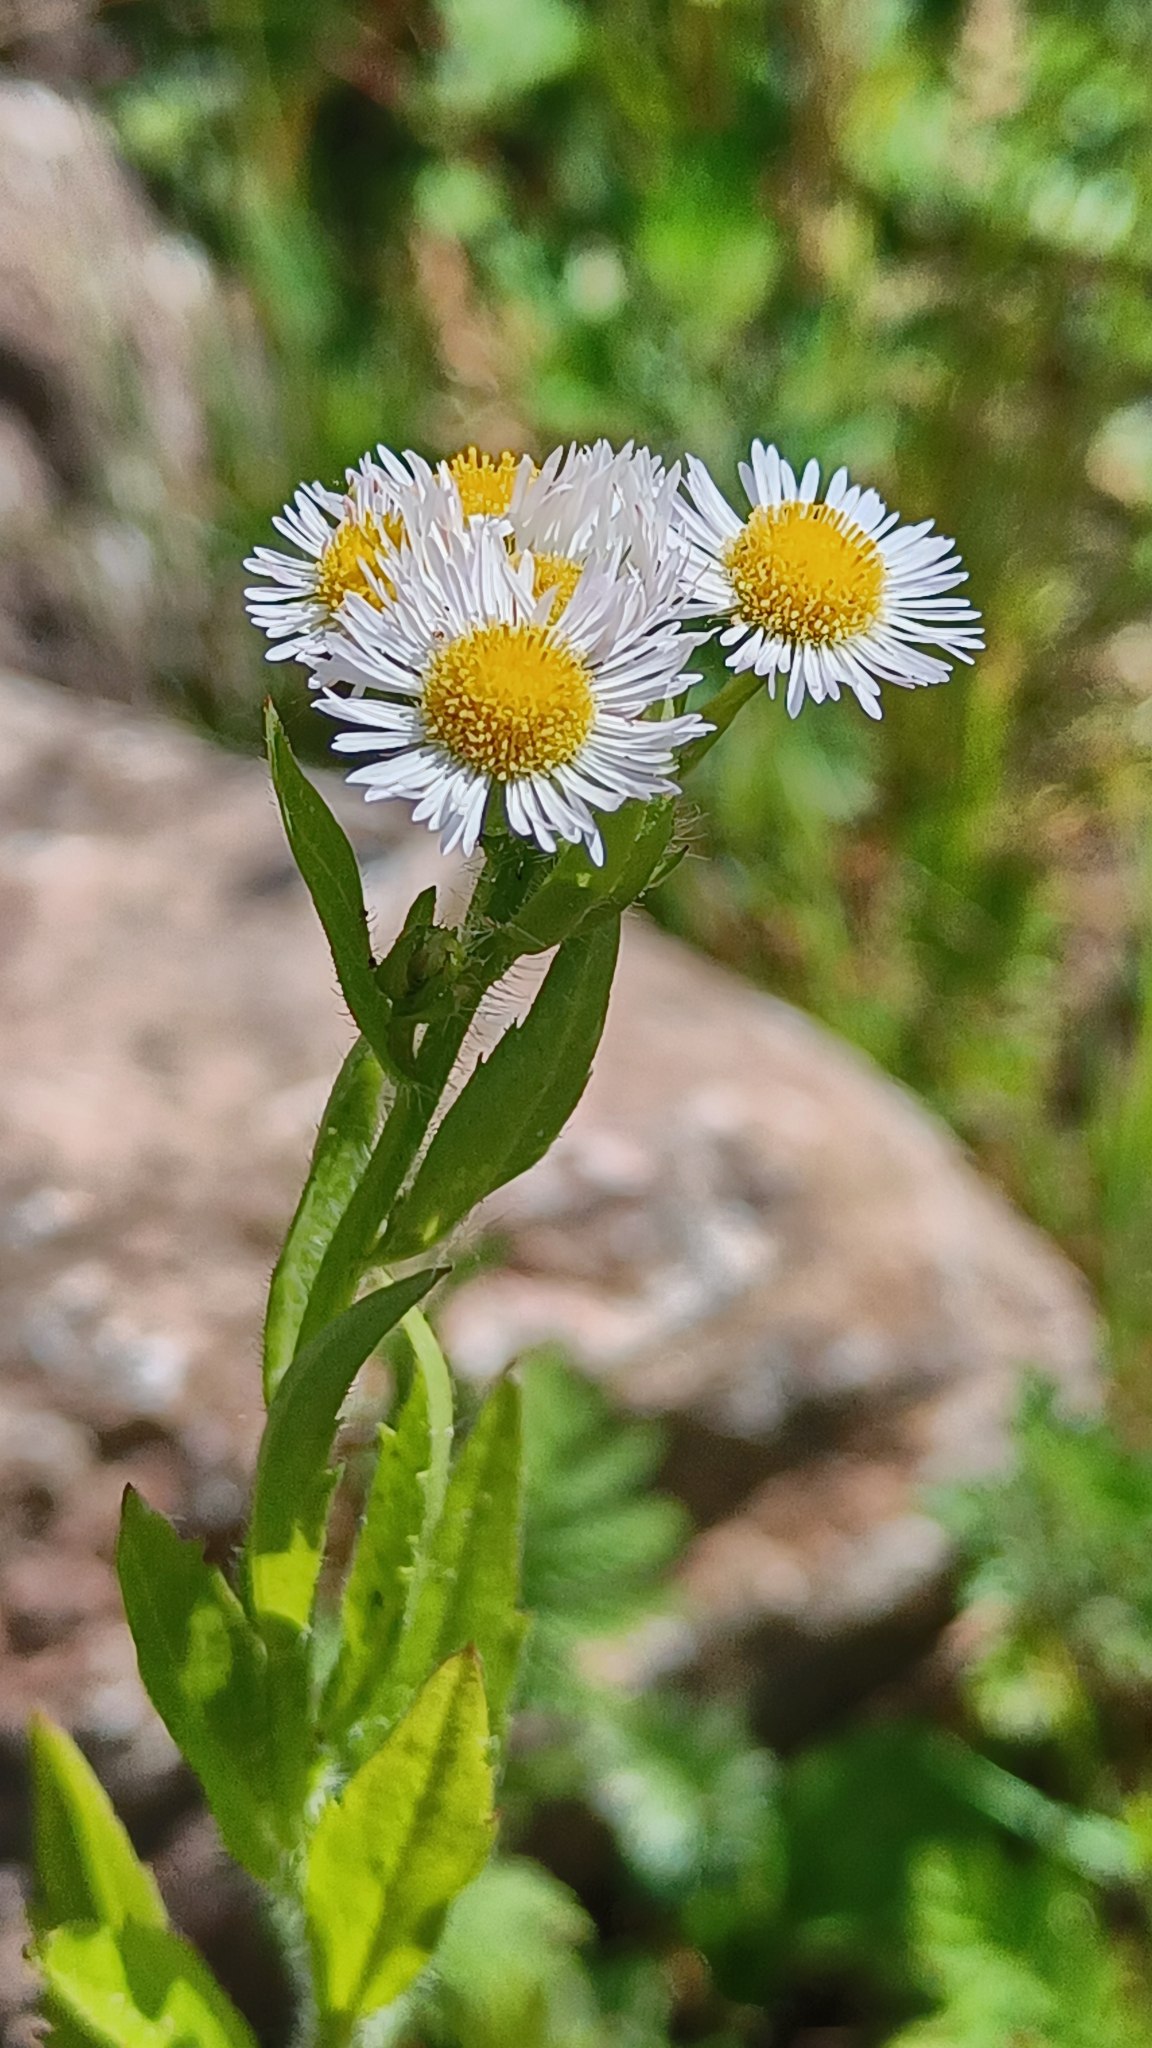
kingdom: Plantae
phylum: Tracheophyta
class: Magnoliopsida
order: Asterales
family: Asteraceae
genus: Erigeron
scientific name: Erigeron annuus
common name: Smalstråle
